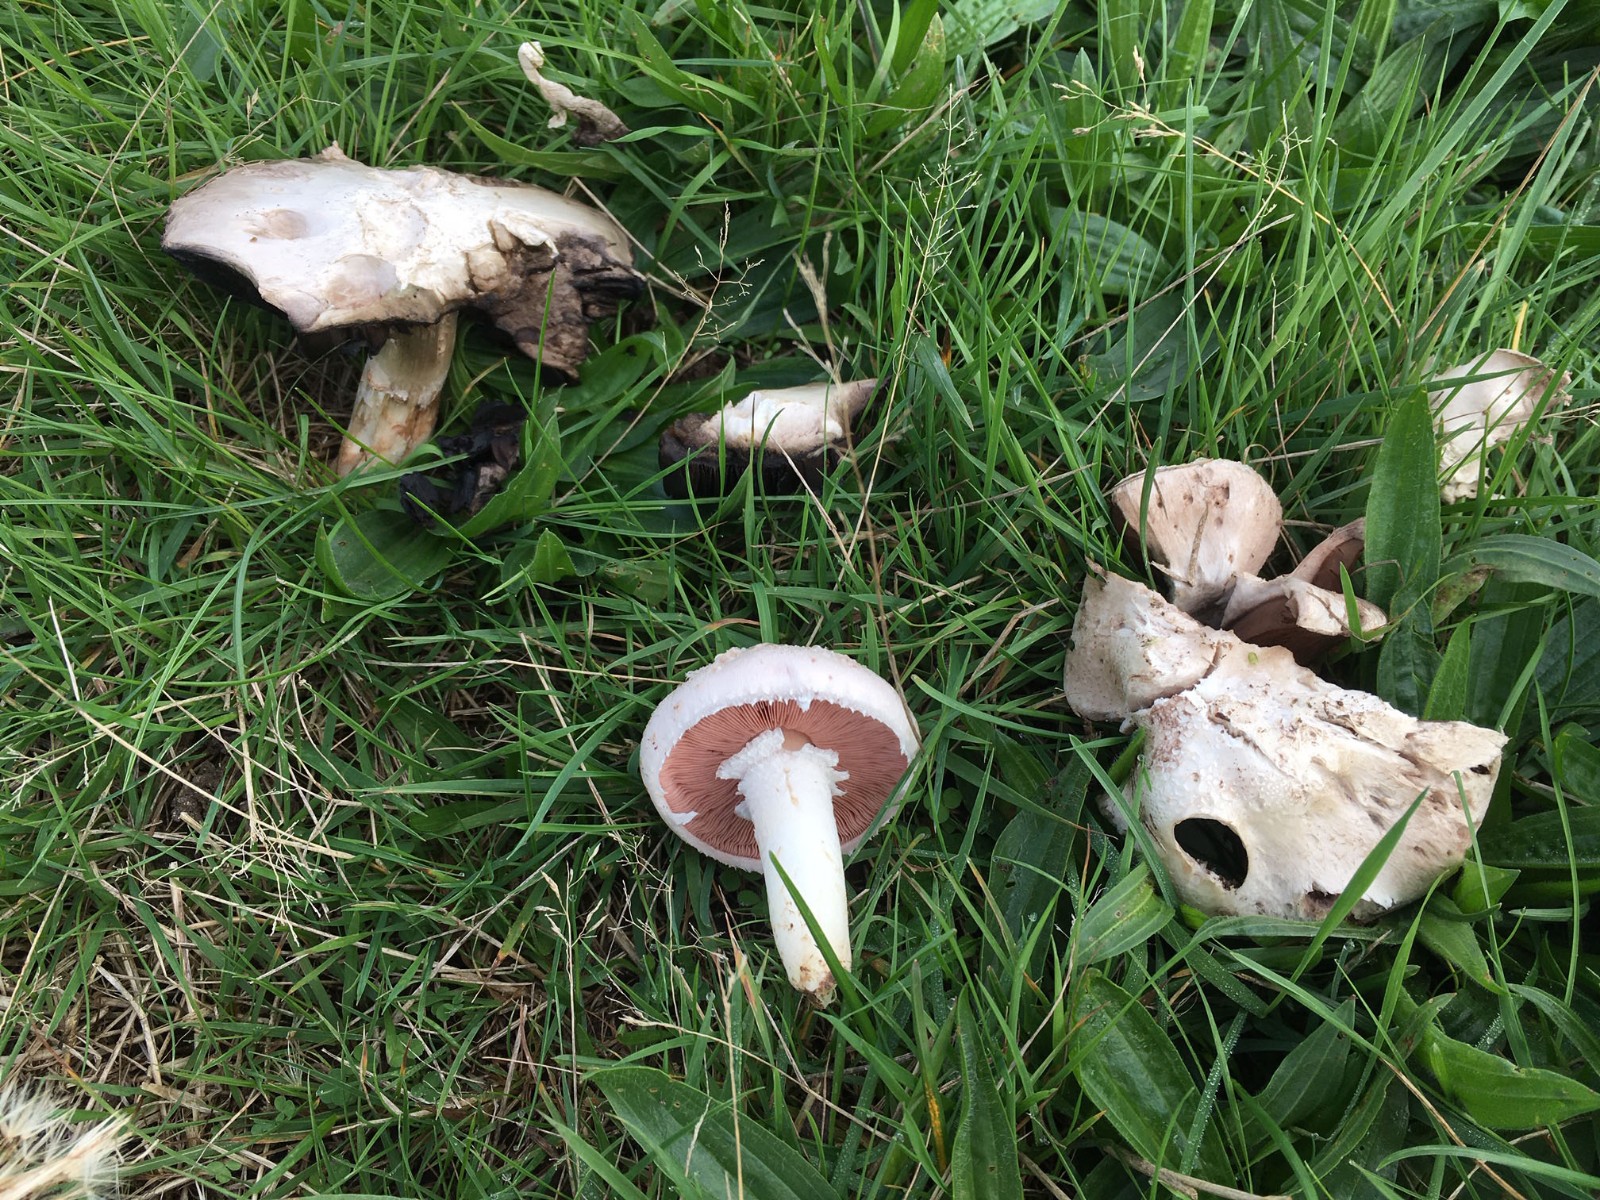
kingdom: Fungi
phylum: Basidiomycota
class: Agaricomycetes
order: Agaricales
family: Agaricaceae
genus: Agaricus
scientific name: Agaricus campestris
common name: mark-champignon
